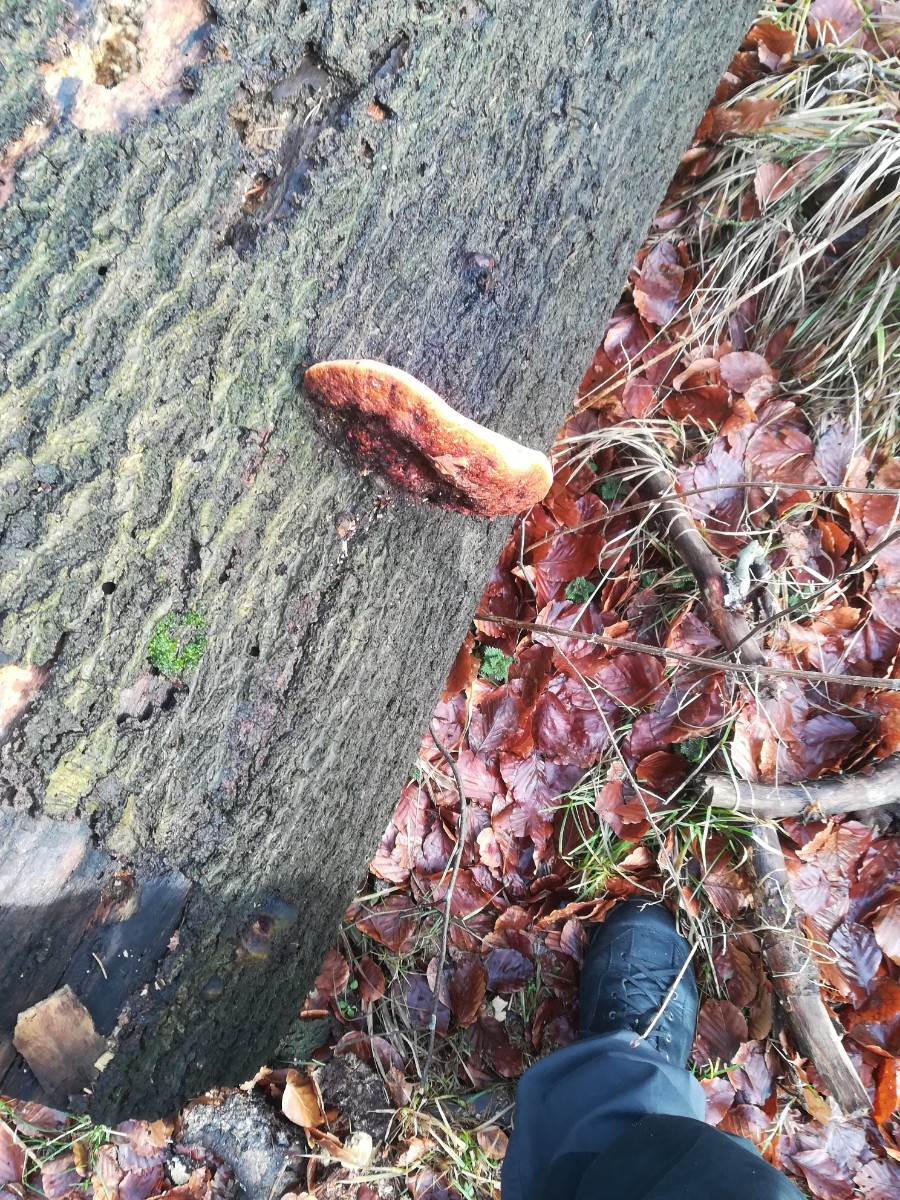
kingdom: Fungi
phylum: Basidiomycota
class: Agaricomycetes
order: Polyporales
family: Fomitopsidaceae
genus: Fomitopsis
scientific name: Fomitopsis pinicola
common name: randbæltet hovporesvamp
